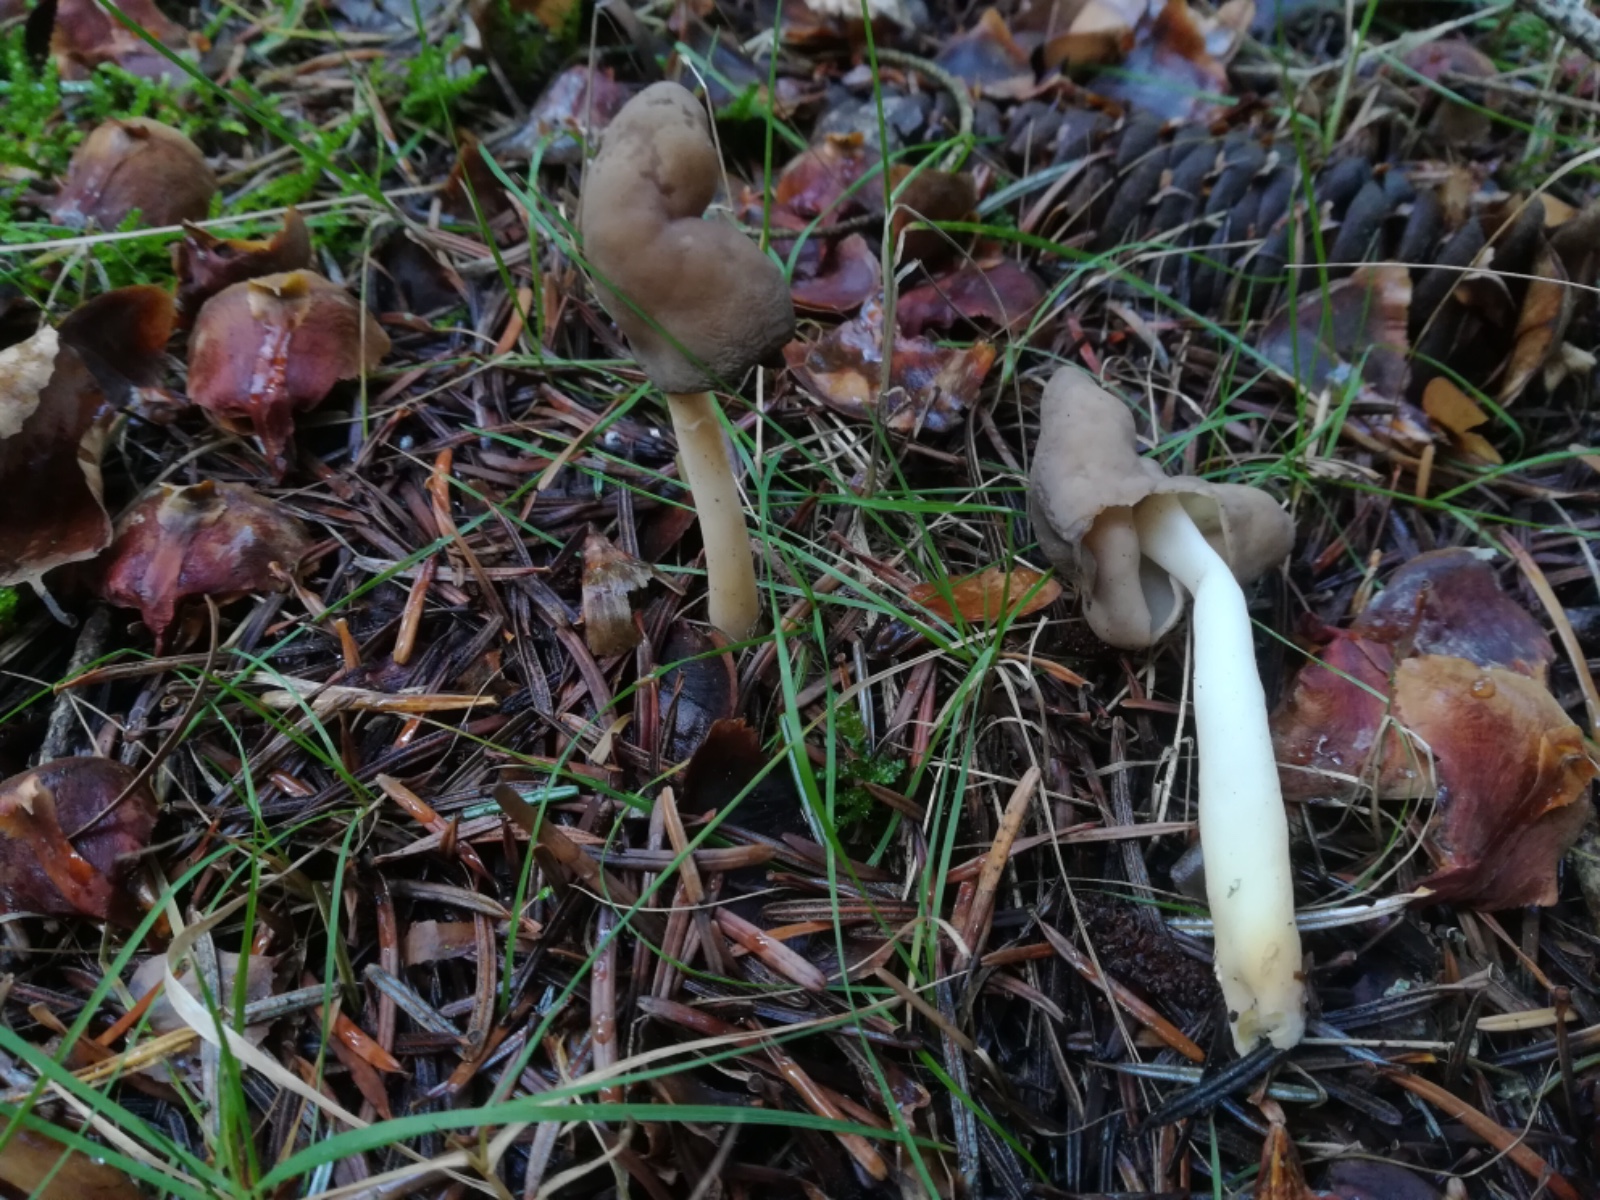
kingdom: Fungi
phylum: Ascomycota
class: Pezizomycetes
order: Pezizales
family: Helvellaceae
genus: Helvella
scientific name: Helvella elastica
